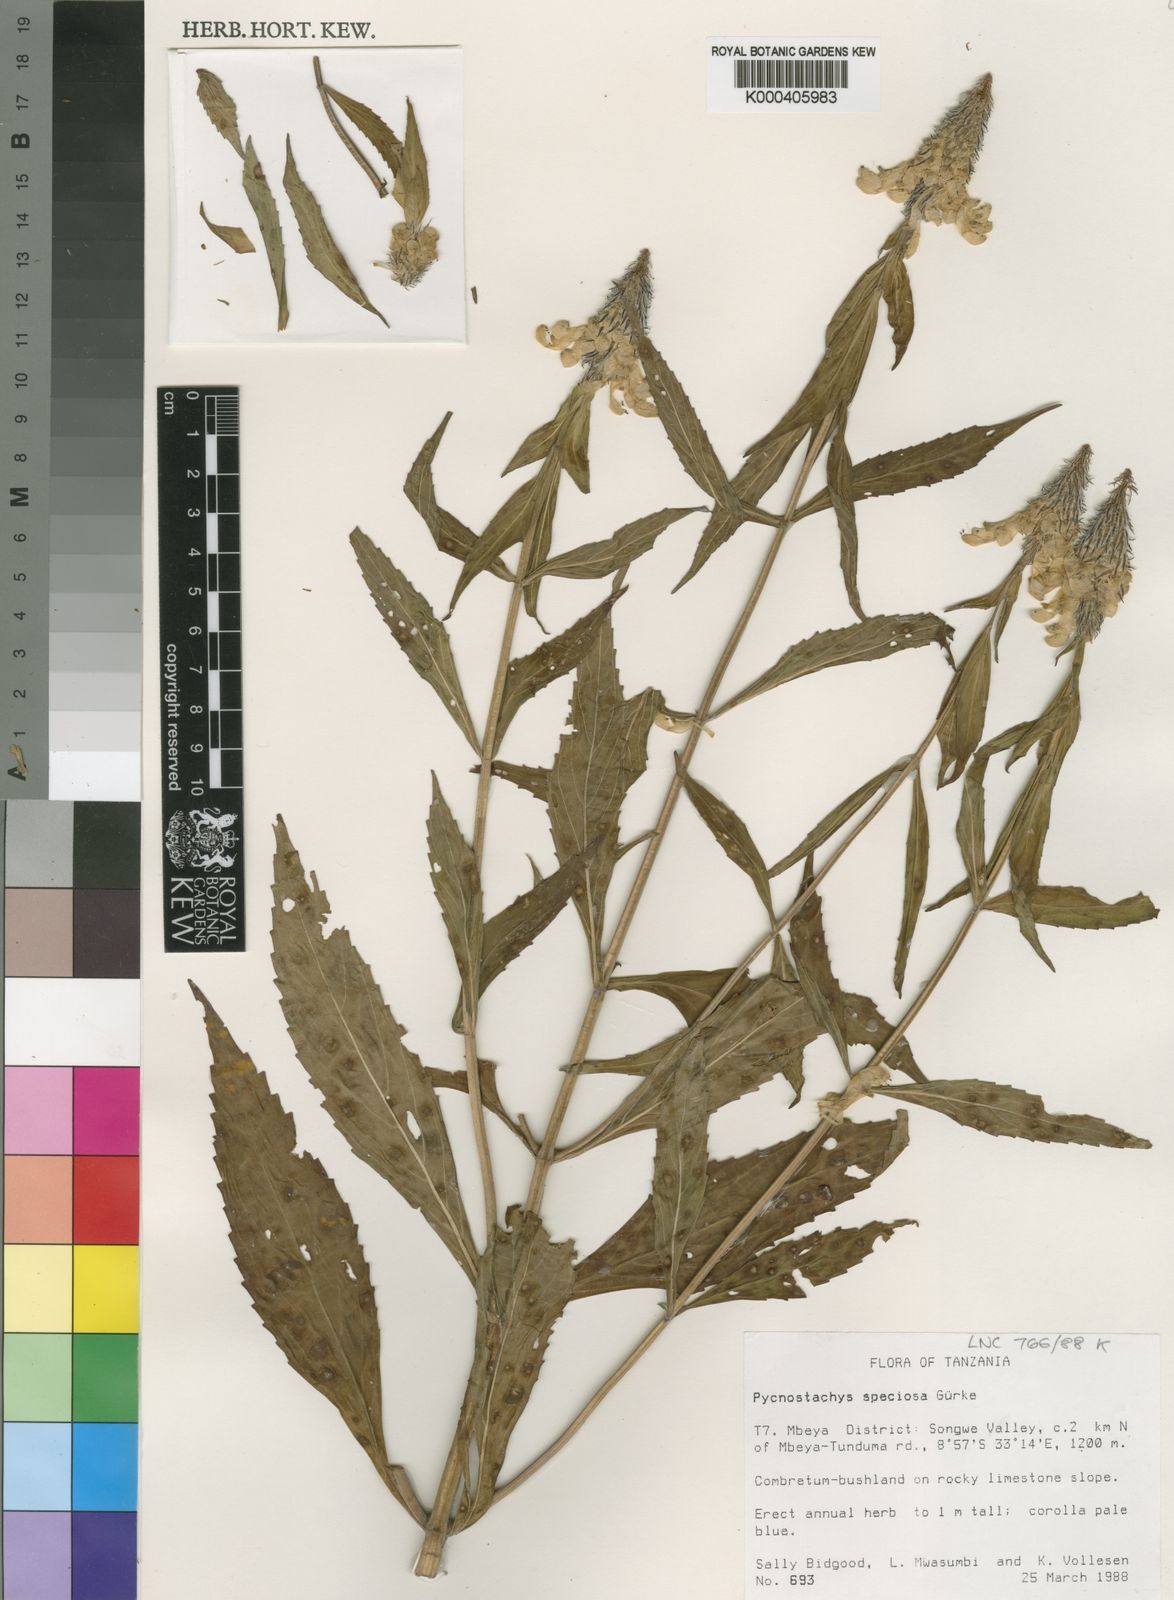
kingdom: Plantae
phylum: Tracheophyta
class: Magnoliopsida
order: Lamiales
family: Lamiaceae
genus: Coleus
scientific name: Coleus ciliatus
